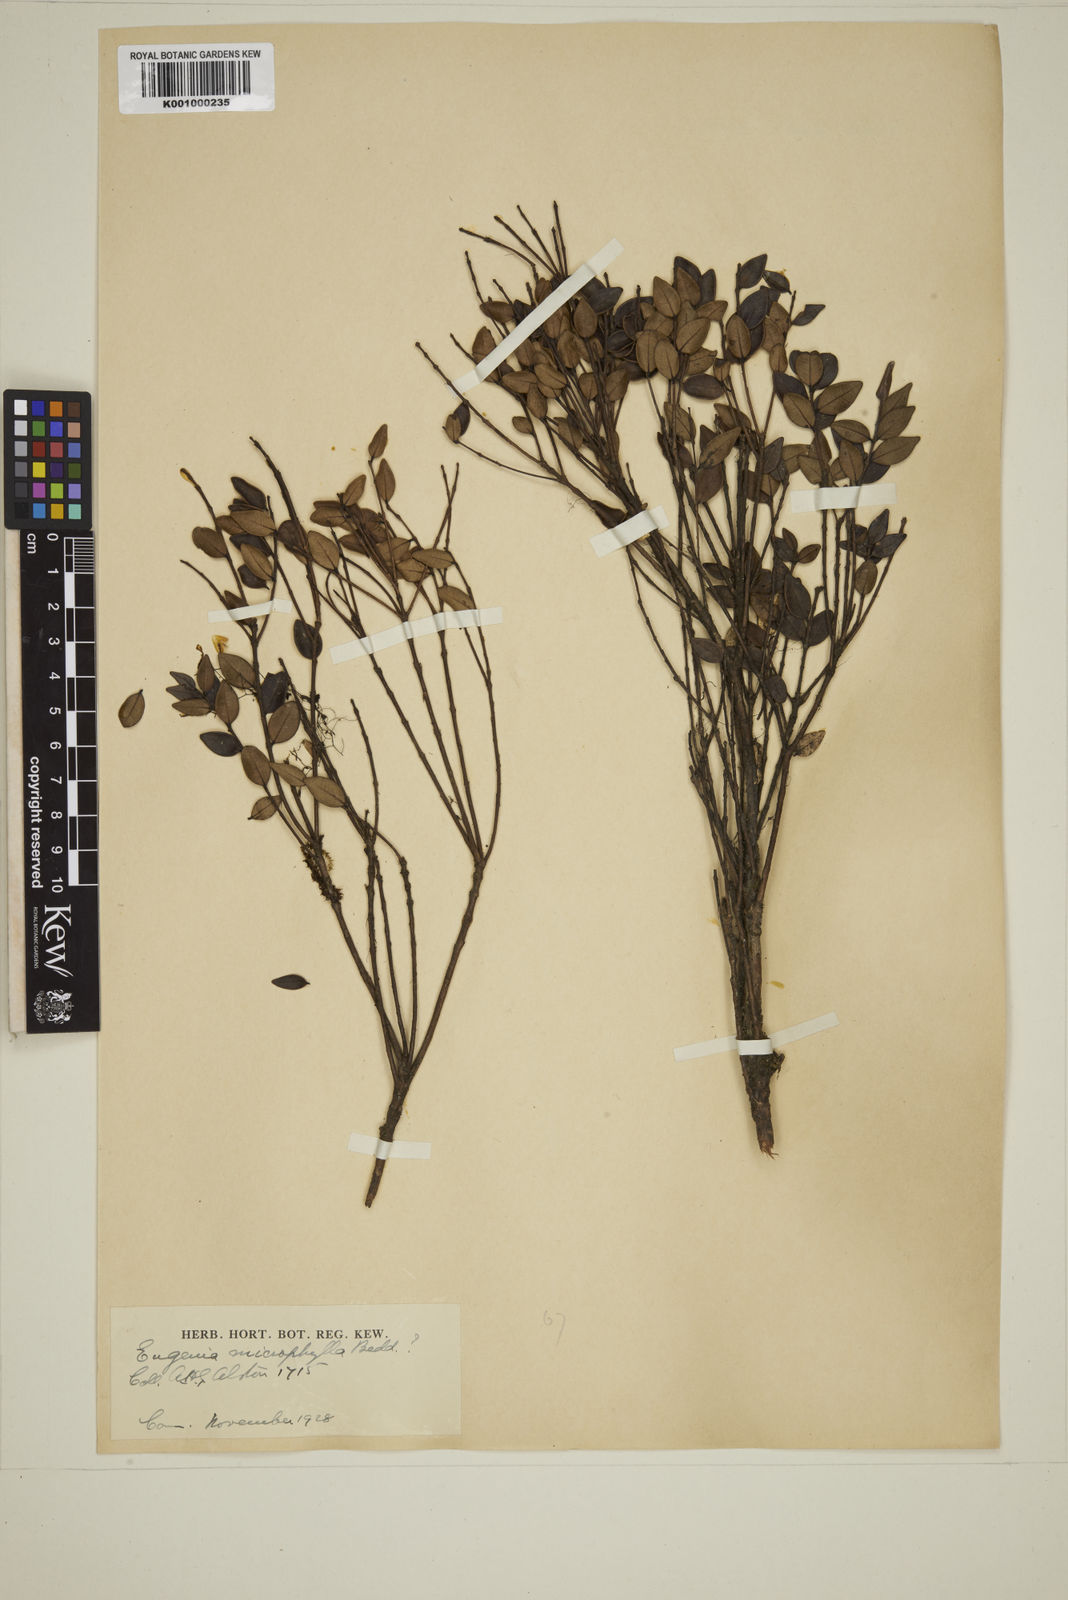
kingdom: Plantae
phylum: Tracheophyta
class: Magnoliopsida
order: Myrtales
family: Myrtaceae
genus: Eugenia
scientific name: Eugenia asperifolia
